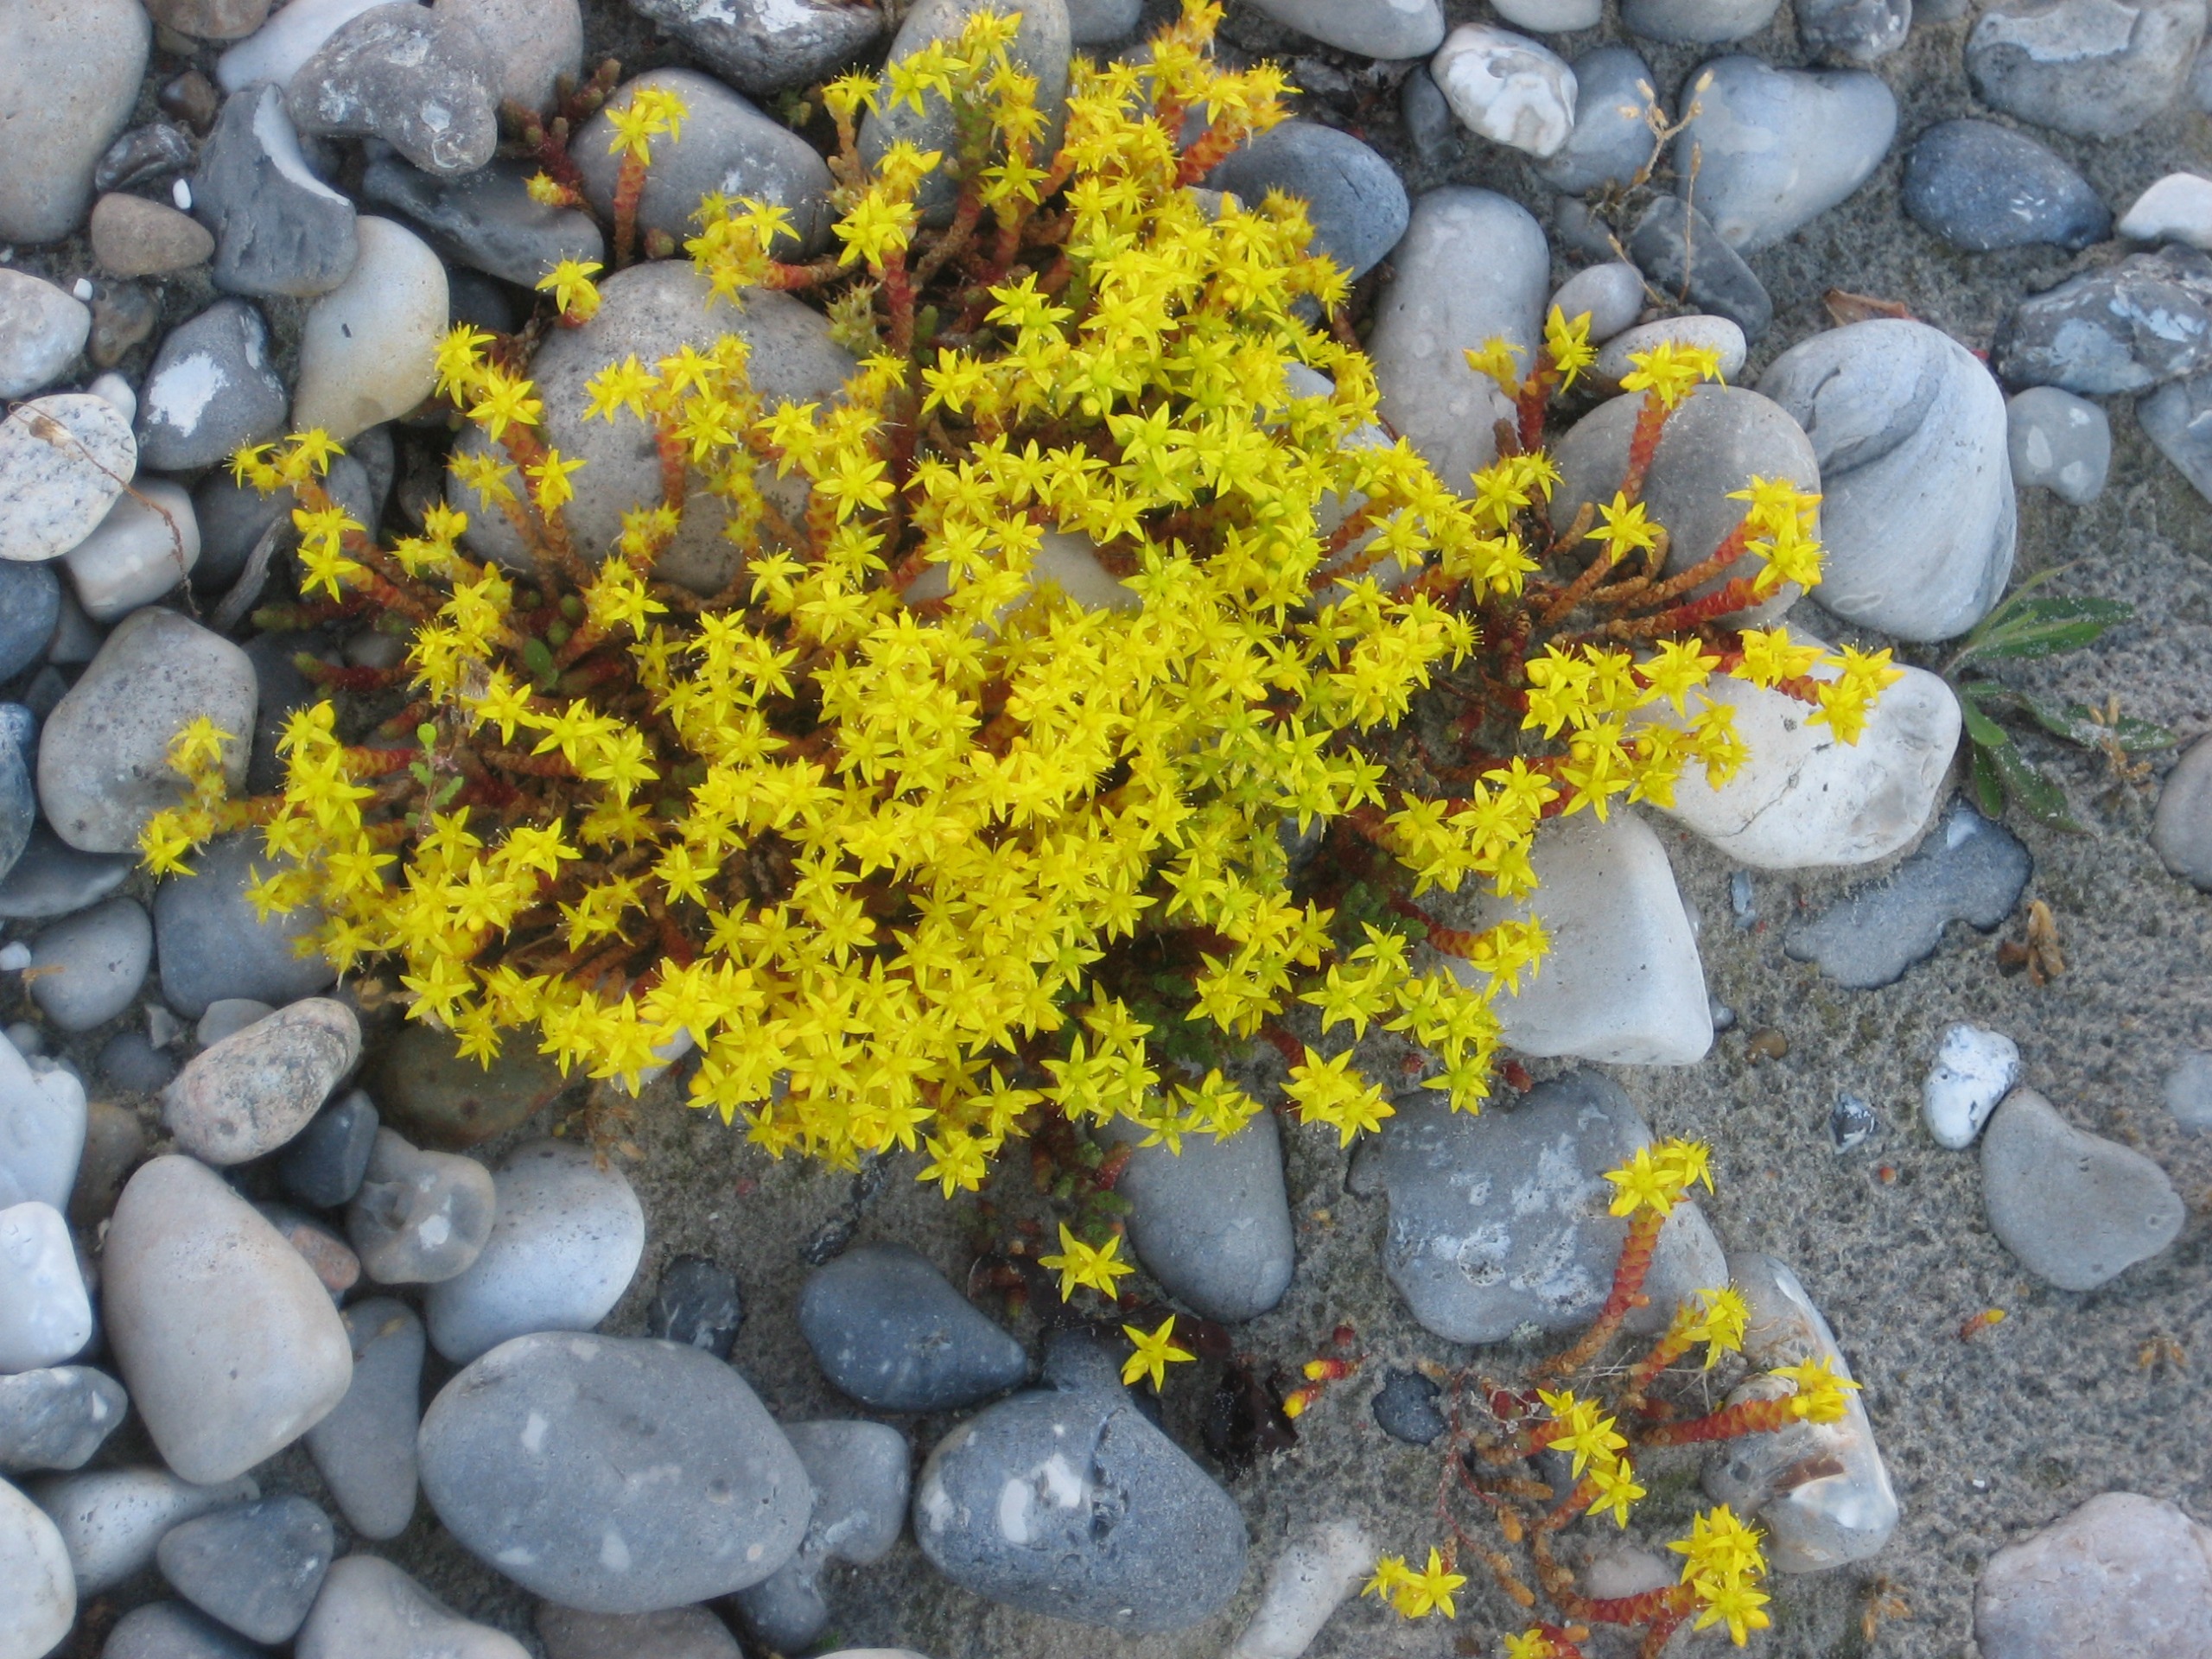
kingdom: Plantae
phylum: Tracheophyta
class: Magnoliopsida
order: Saxifragales
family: Crassulaceae
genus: Sedum
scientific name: Sedum acre
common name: Bidende stenurt
